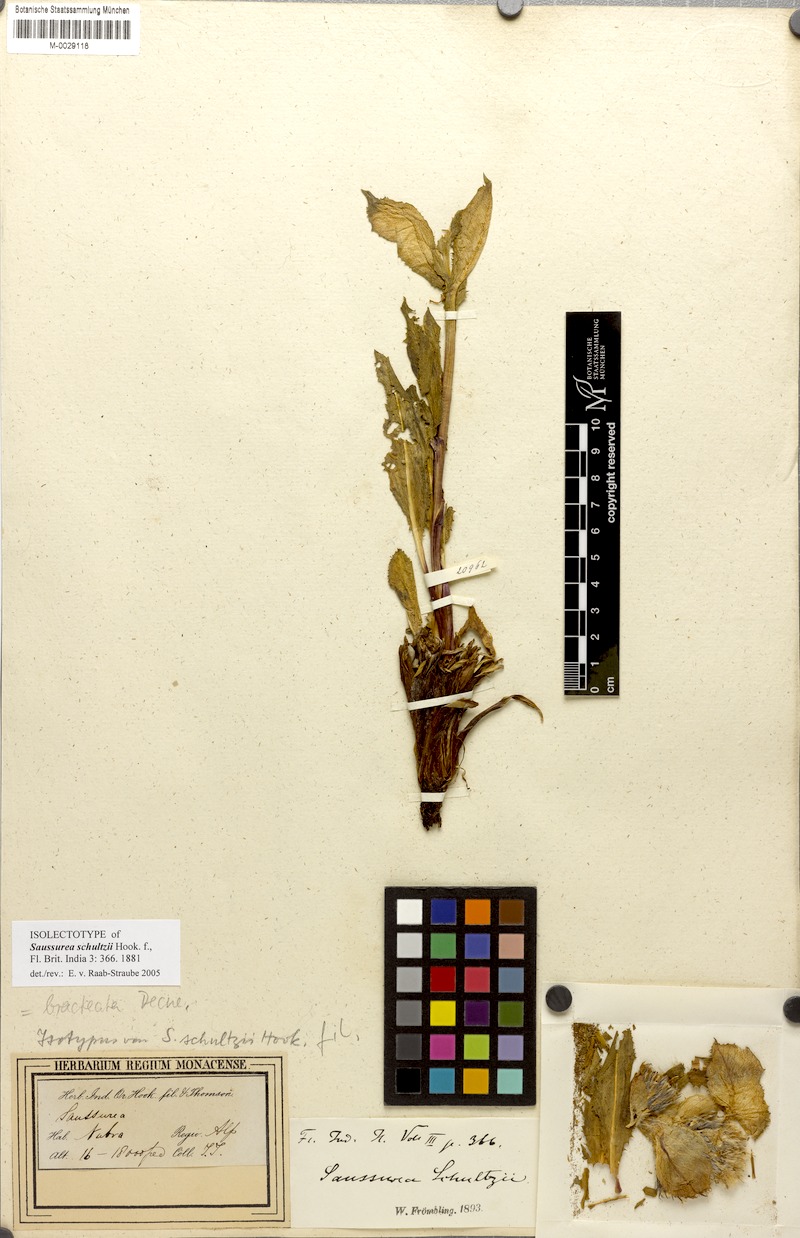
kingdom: Plantae
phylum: Tracheophyta
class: Magnoliopsida
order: Asterales
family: Asteraceae
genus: Saussurea
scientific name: Saussurea bracteata
